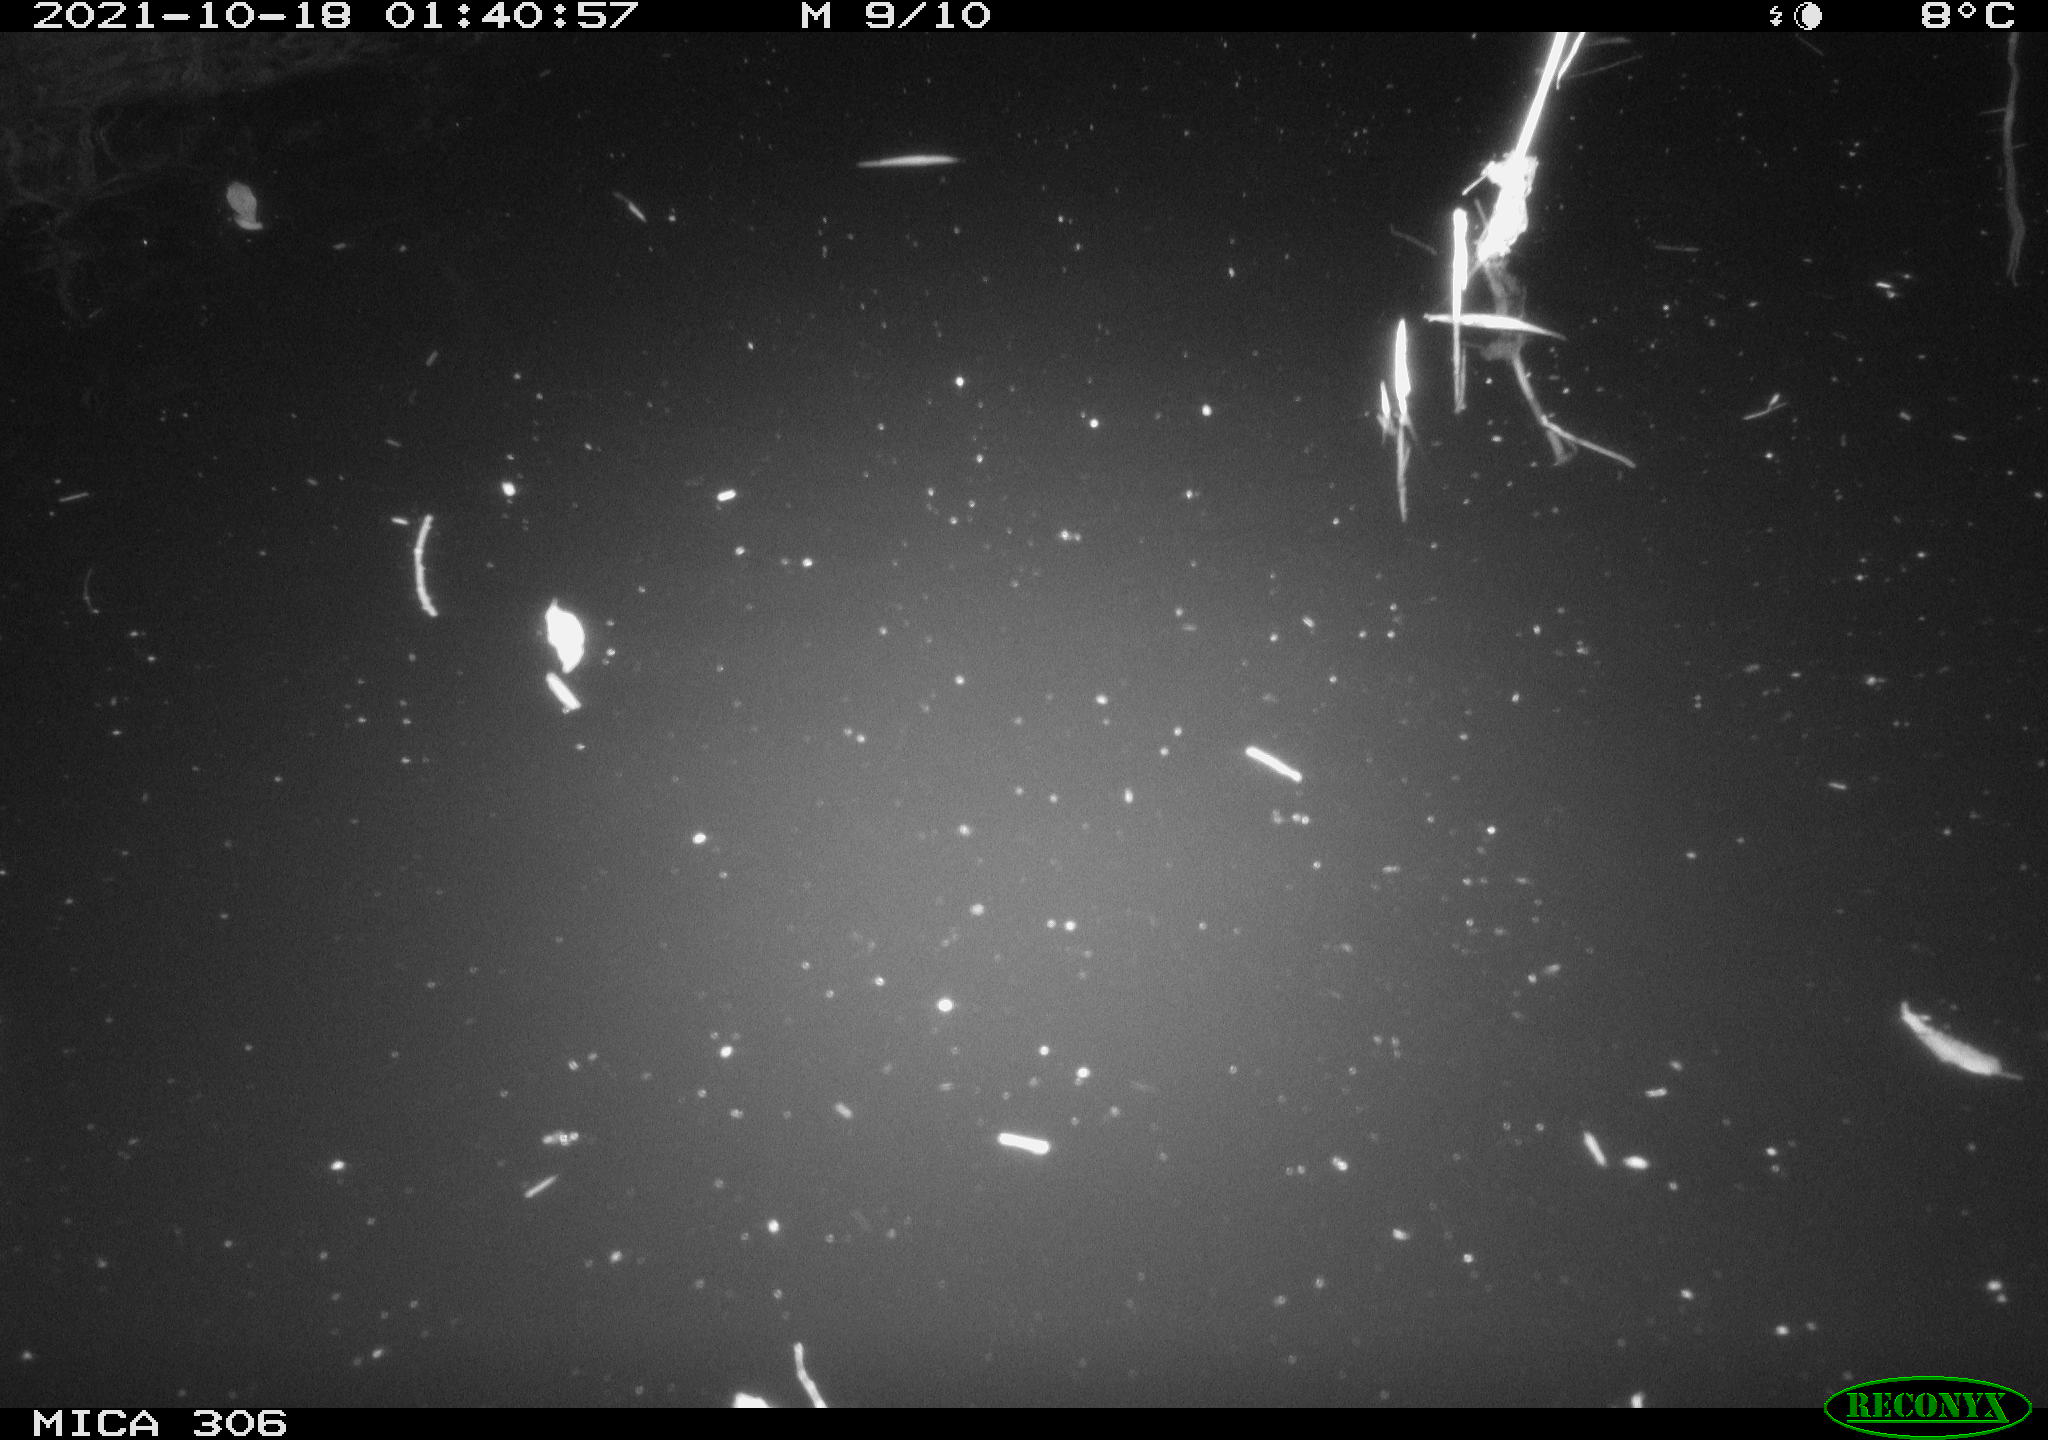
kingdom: Animalia
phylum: Chordata
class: Mammalia
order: Rodentia
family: Cricetidae
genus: Ondatra
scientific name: Ondatra zibethicus
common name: Muskrat
